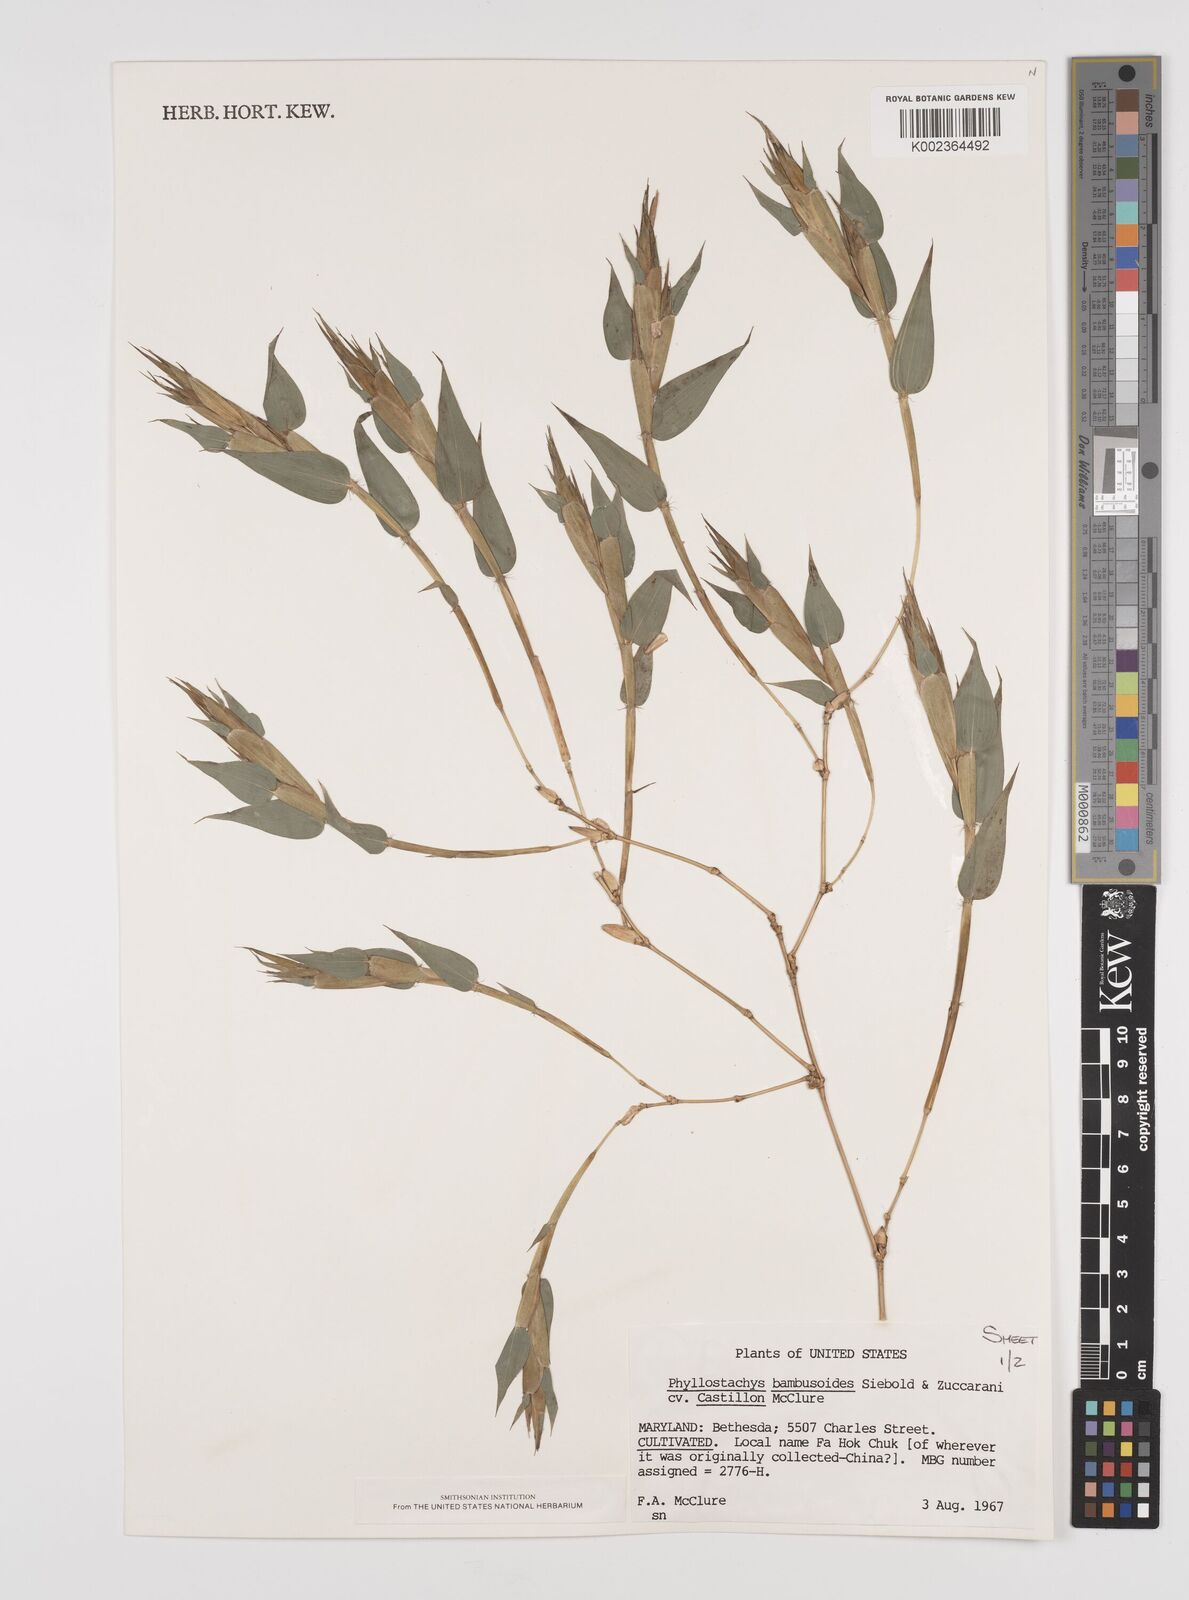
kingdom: Plantae
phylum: Tracheophyta
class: Liliopsida
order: Poales
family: Poaceae
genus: Phyllostachys
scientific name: Phyllostachys reticulata
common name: Bamboo
